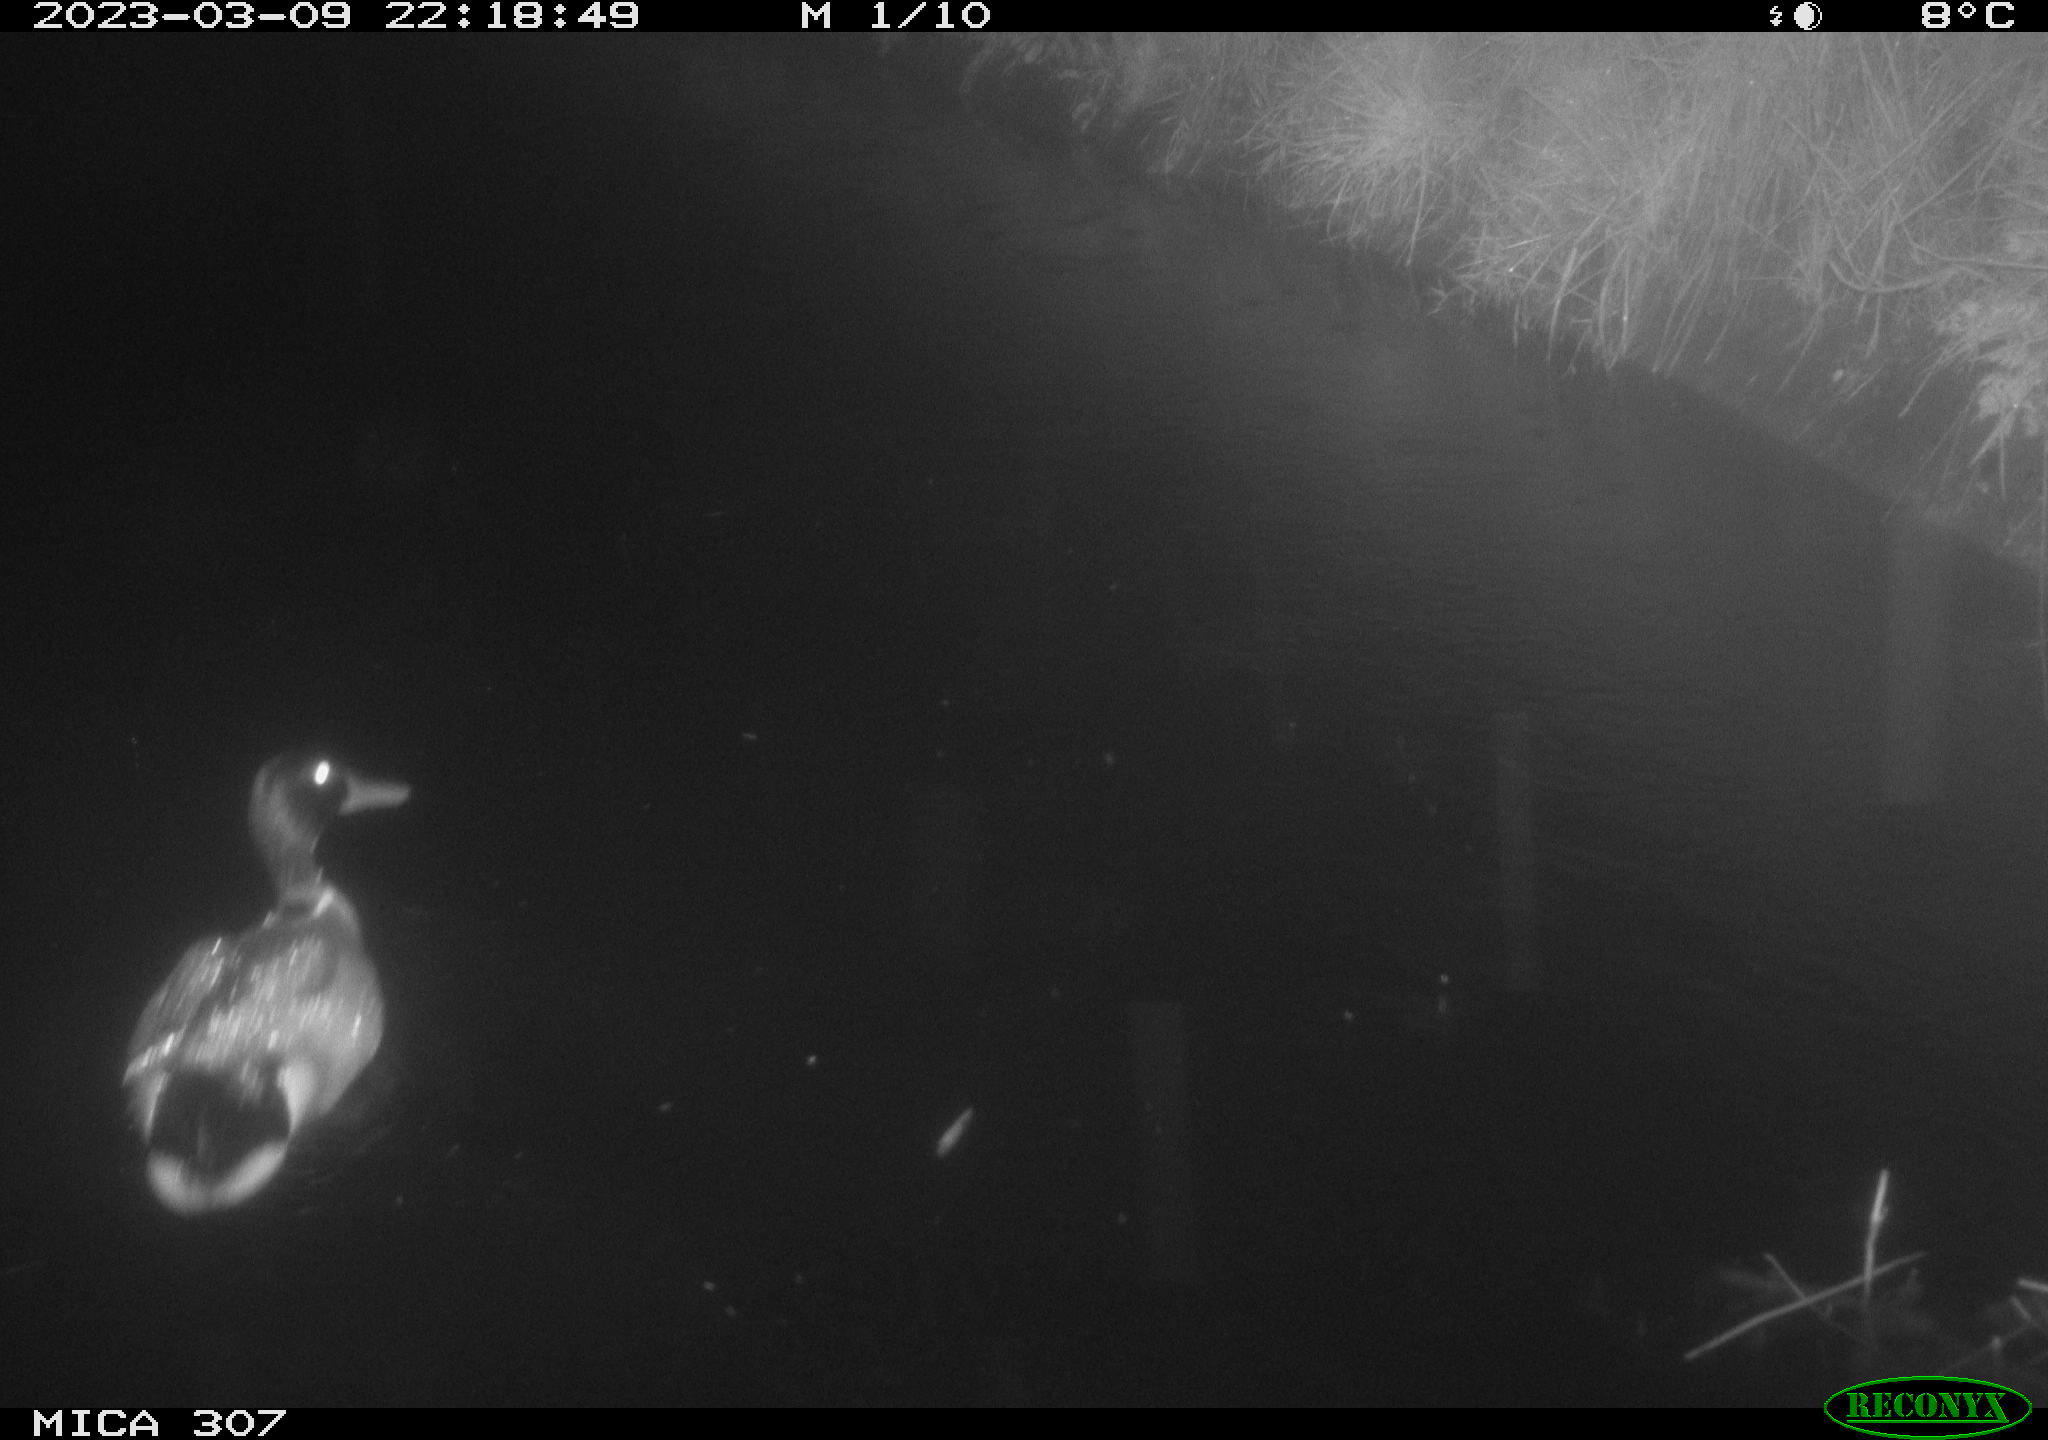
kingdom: Animalia
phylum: Chordata
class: Aves
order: Anseriformes
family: Anatidae
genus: Anas
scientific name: Anas
